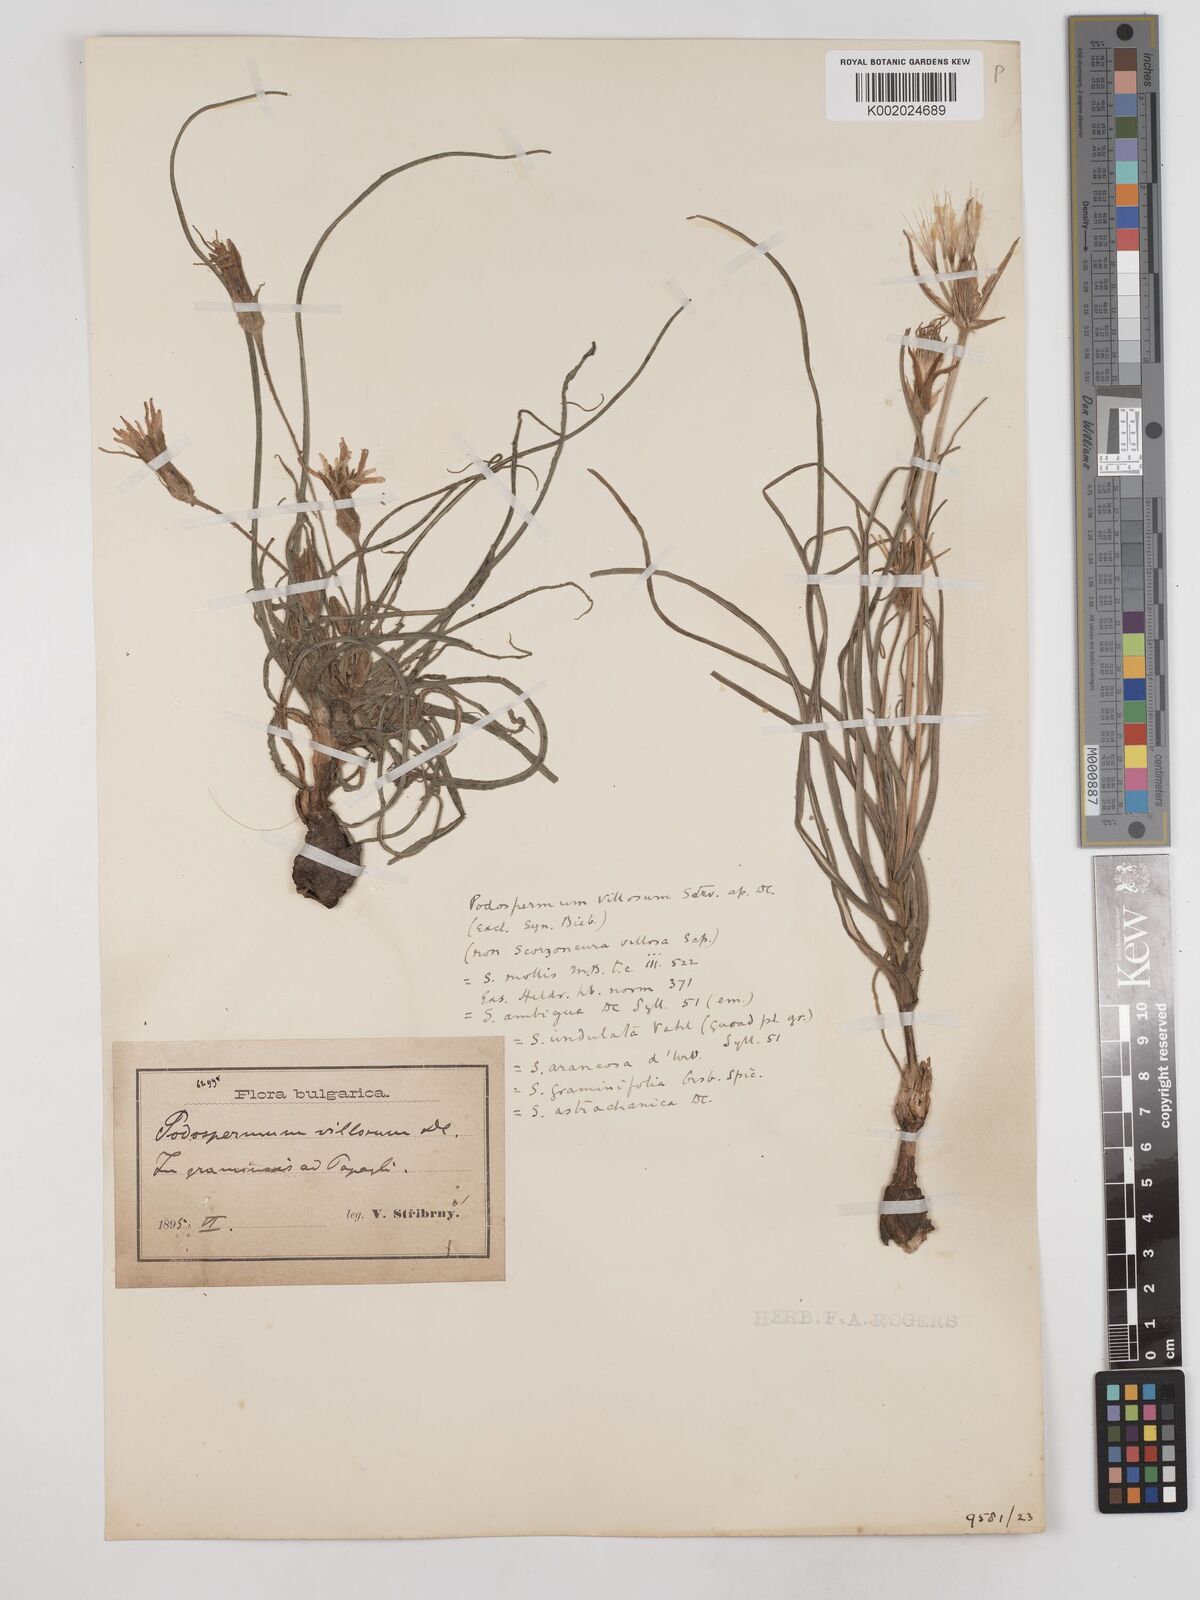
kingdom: Plantae
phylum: Tracheophyta
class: Magnoliopsida
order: Asterales
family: Asteraceae
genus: Candollea
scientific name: Candollea mollis
